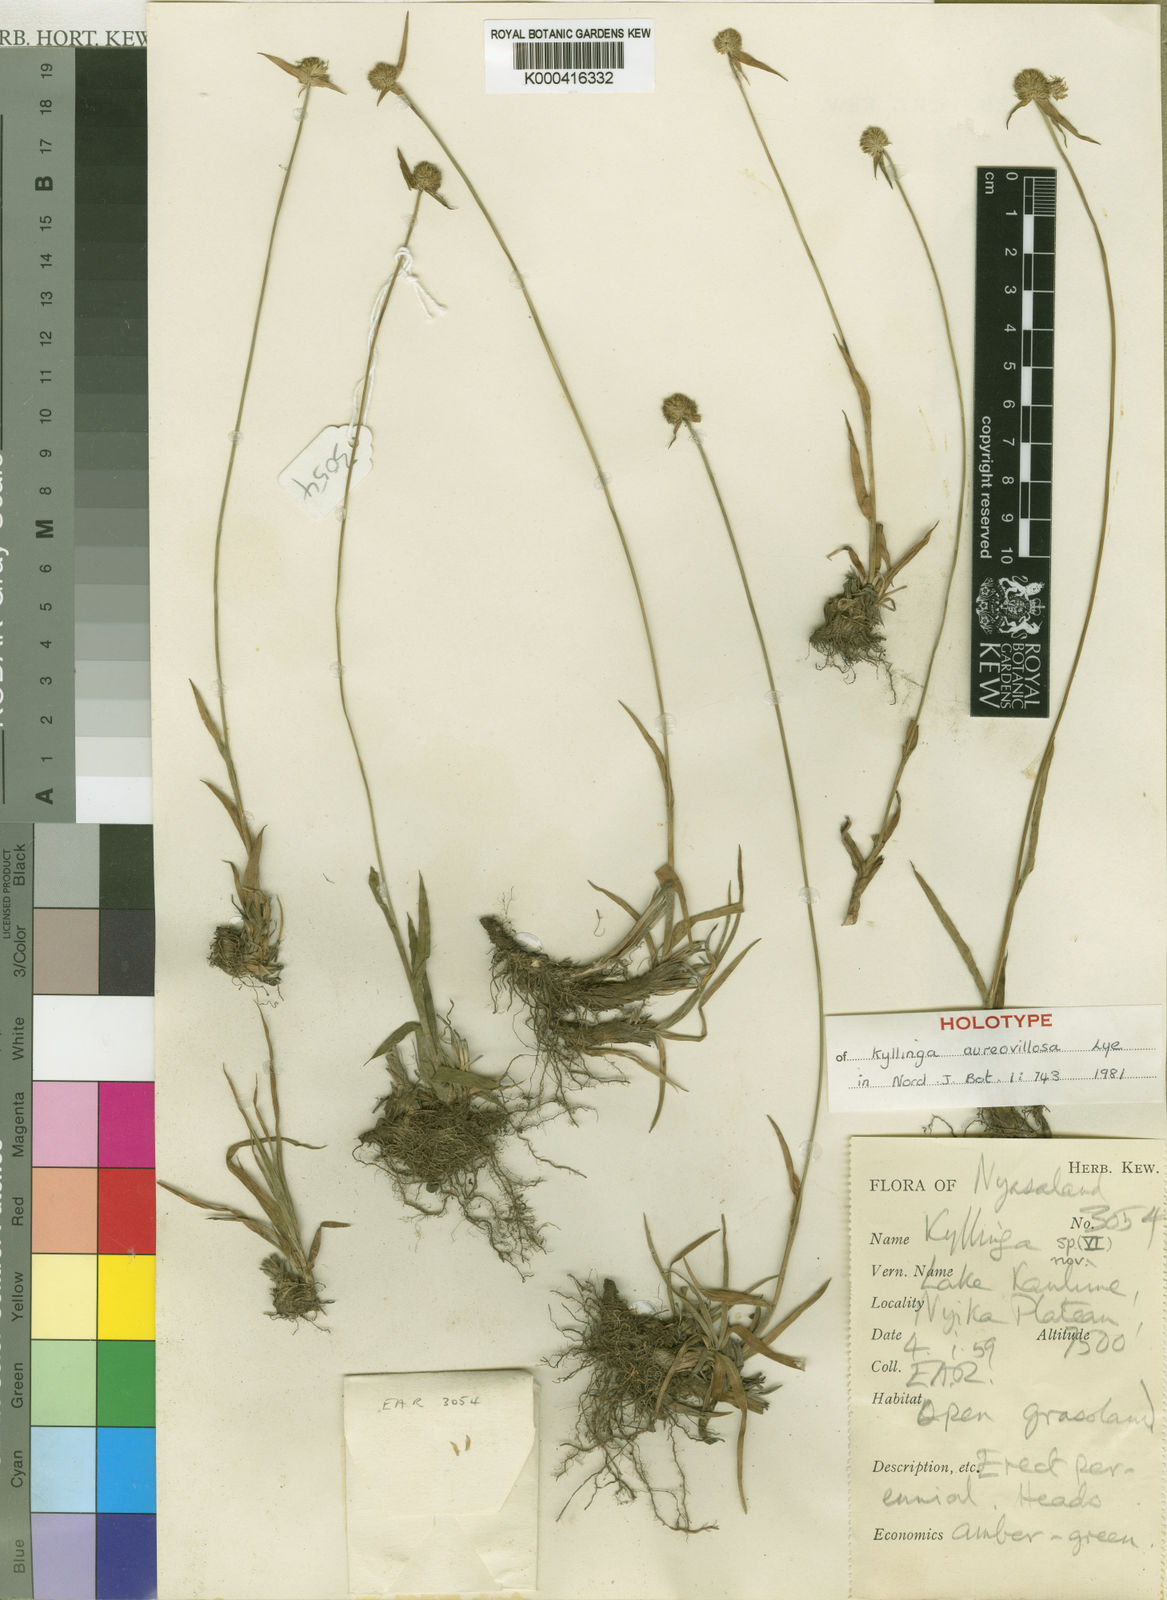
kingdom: Plantae
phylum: Tracheophyta
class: Liliopsida
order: Poales
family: Cyperaceae
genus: Cyperus
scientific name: Cyperus aureovillosus
